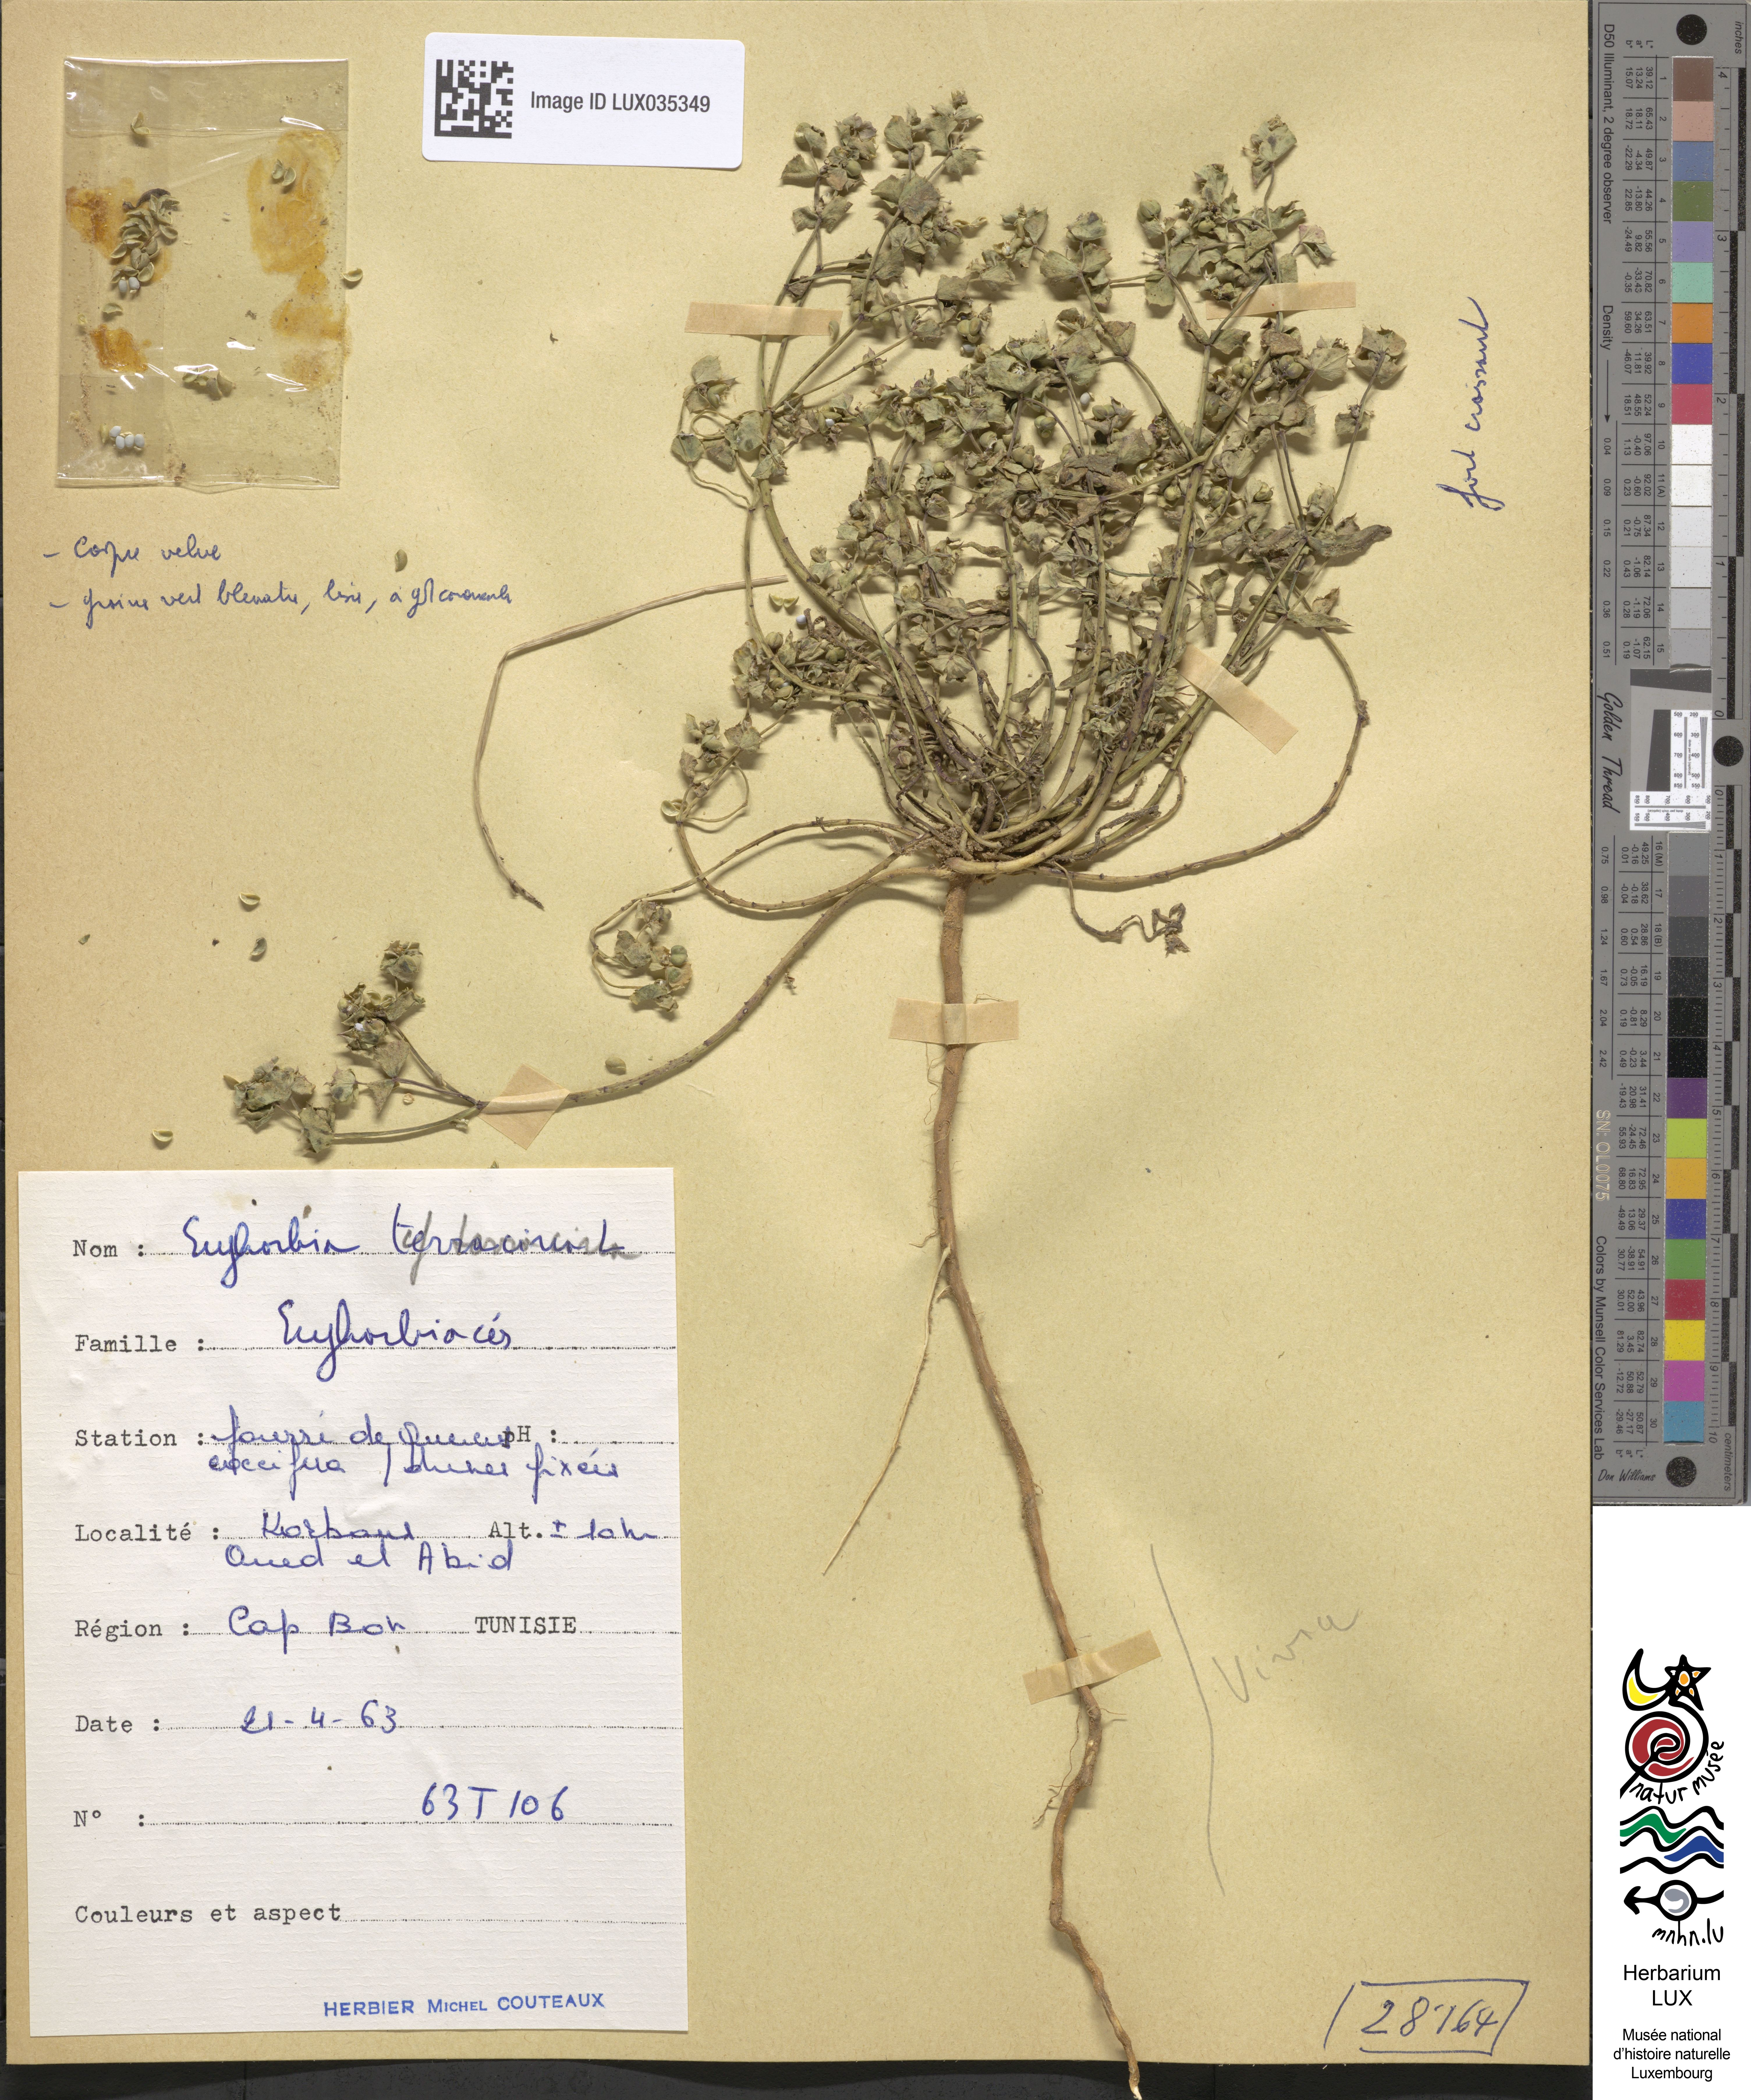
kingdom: Plantae
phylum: Tracheophyta
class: Magnoliopsida
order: Malpighiales
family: Euphorbiaceae
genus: Euphorbia
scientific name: Euphorbia terracina
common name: Geraldton carnation weed
